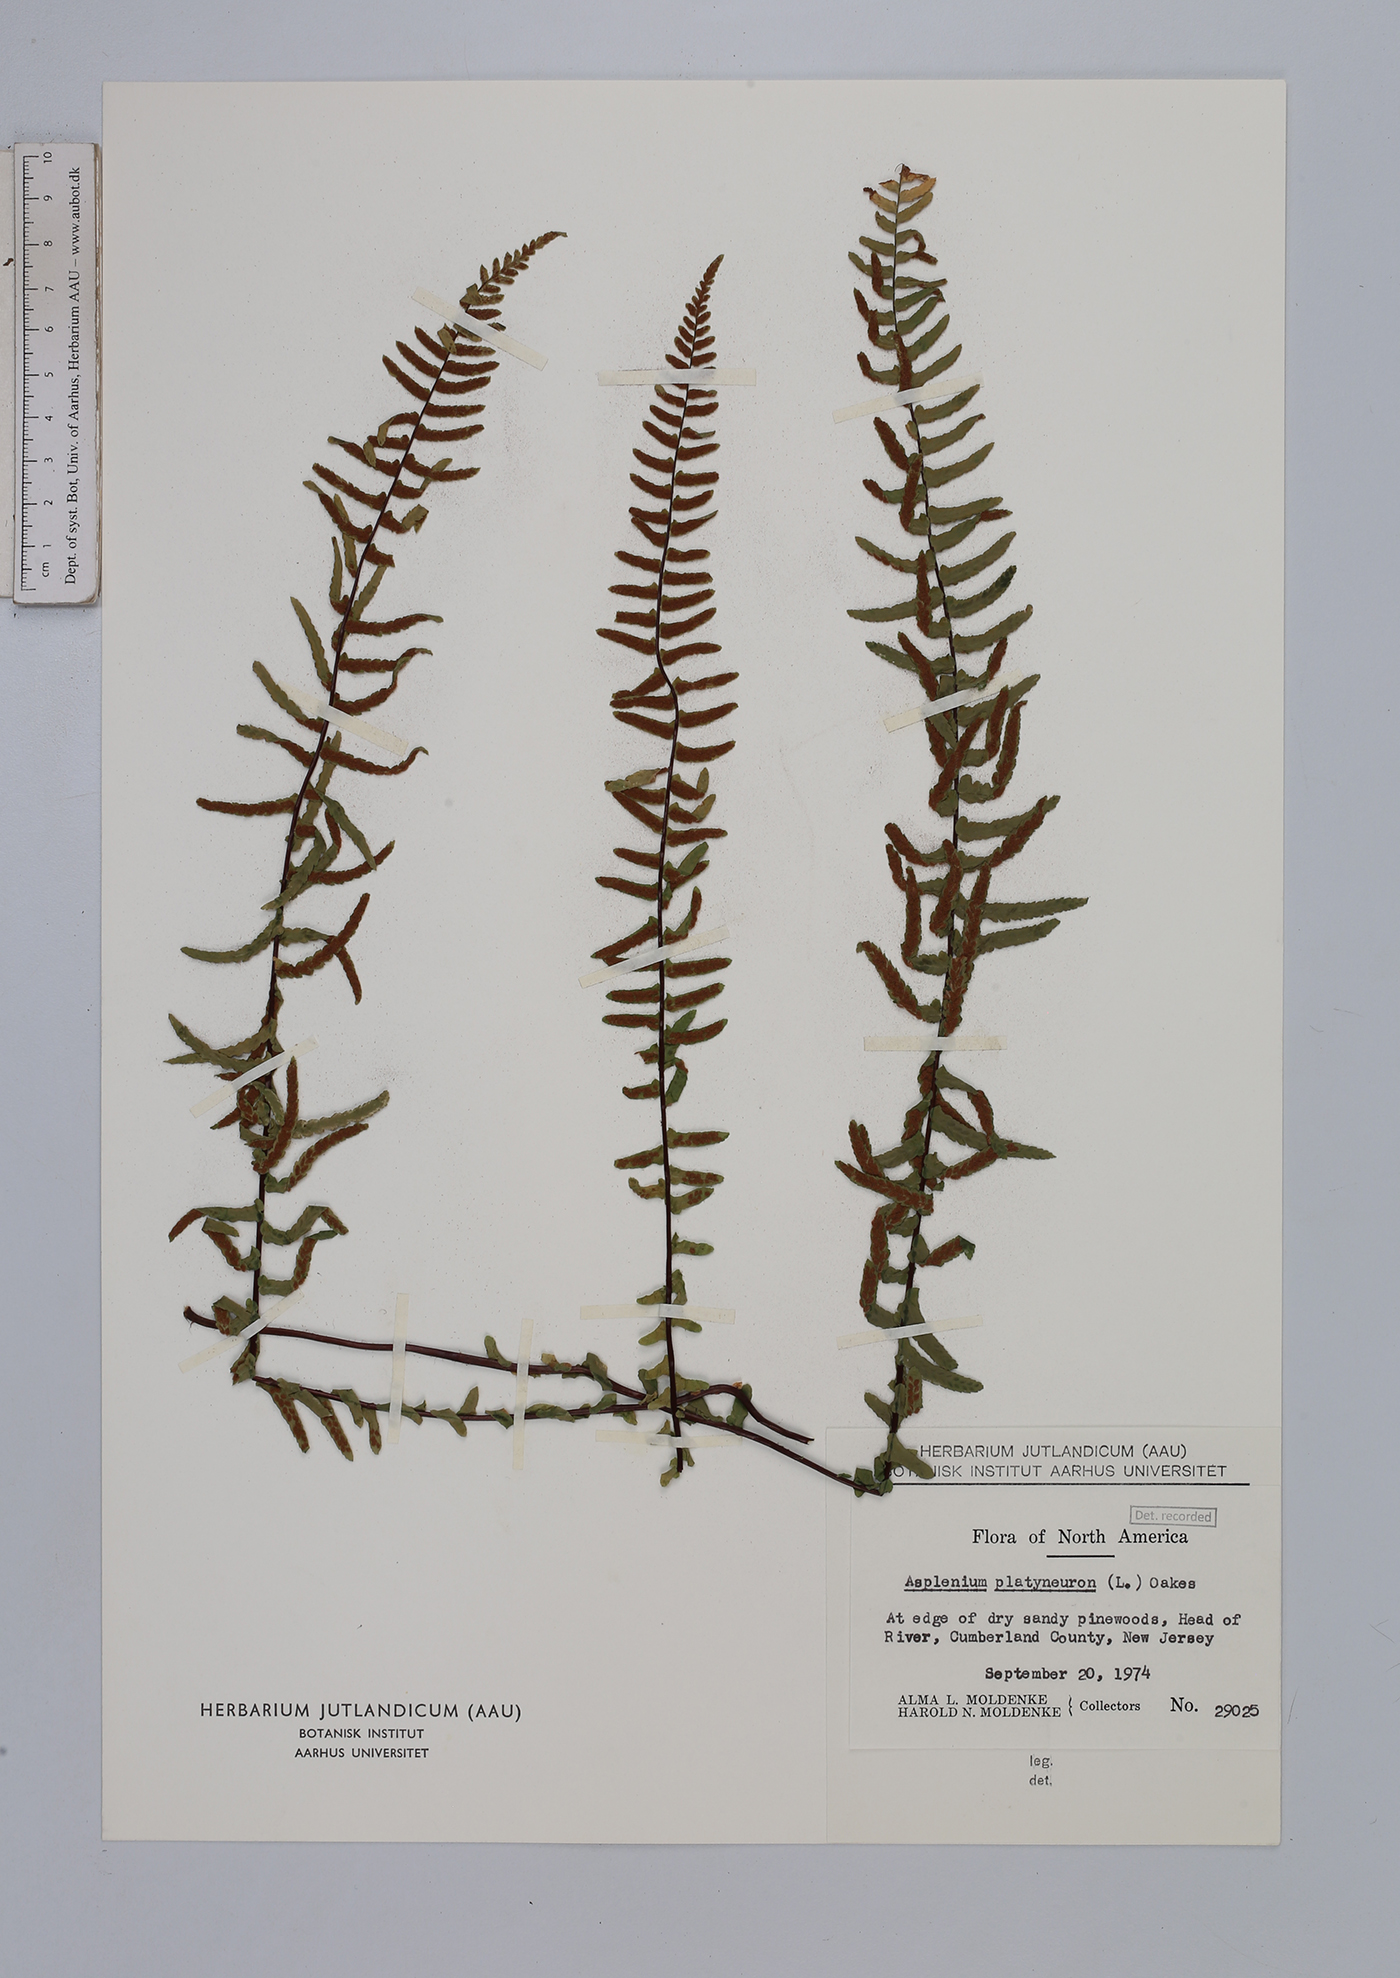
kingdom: Plantae
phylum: Tracheophyta
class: Polypodiopsida
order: Polypodiales
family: Aspleniaceae
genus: Asplenium
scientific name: Asplenium platyneuron
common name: Ebony spleenwort
